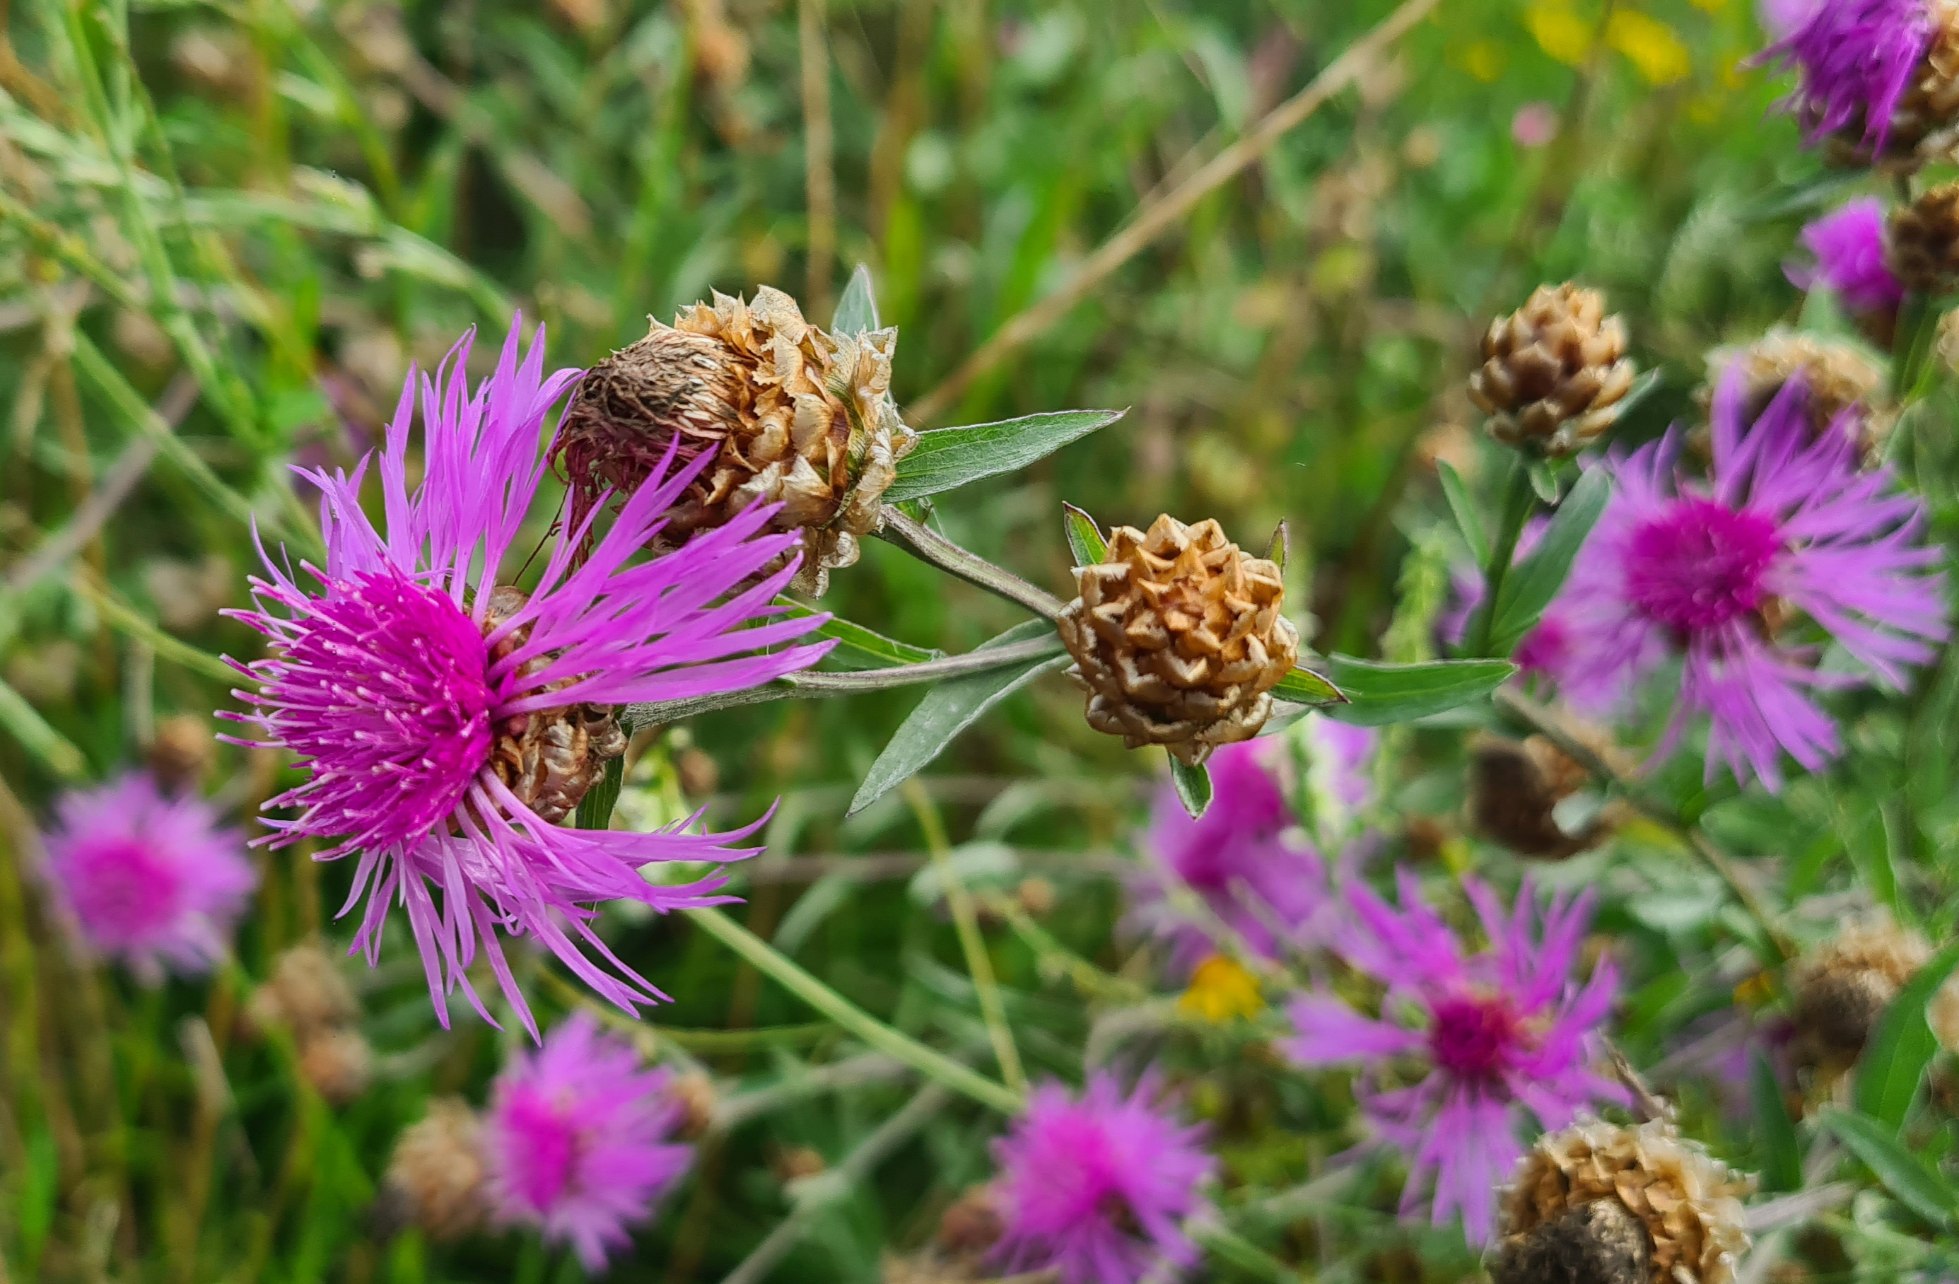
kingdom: Plantae
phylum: Tracheophyta
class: Magnoliopsida
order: Asterales
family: Asteraceae
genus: Centaurea
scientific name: Centaurea jacea
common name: Almindelig knopurt
